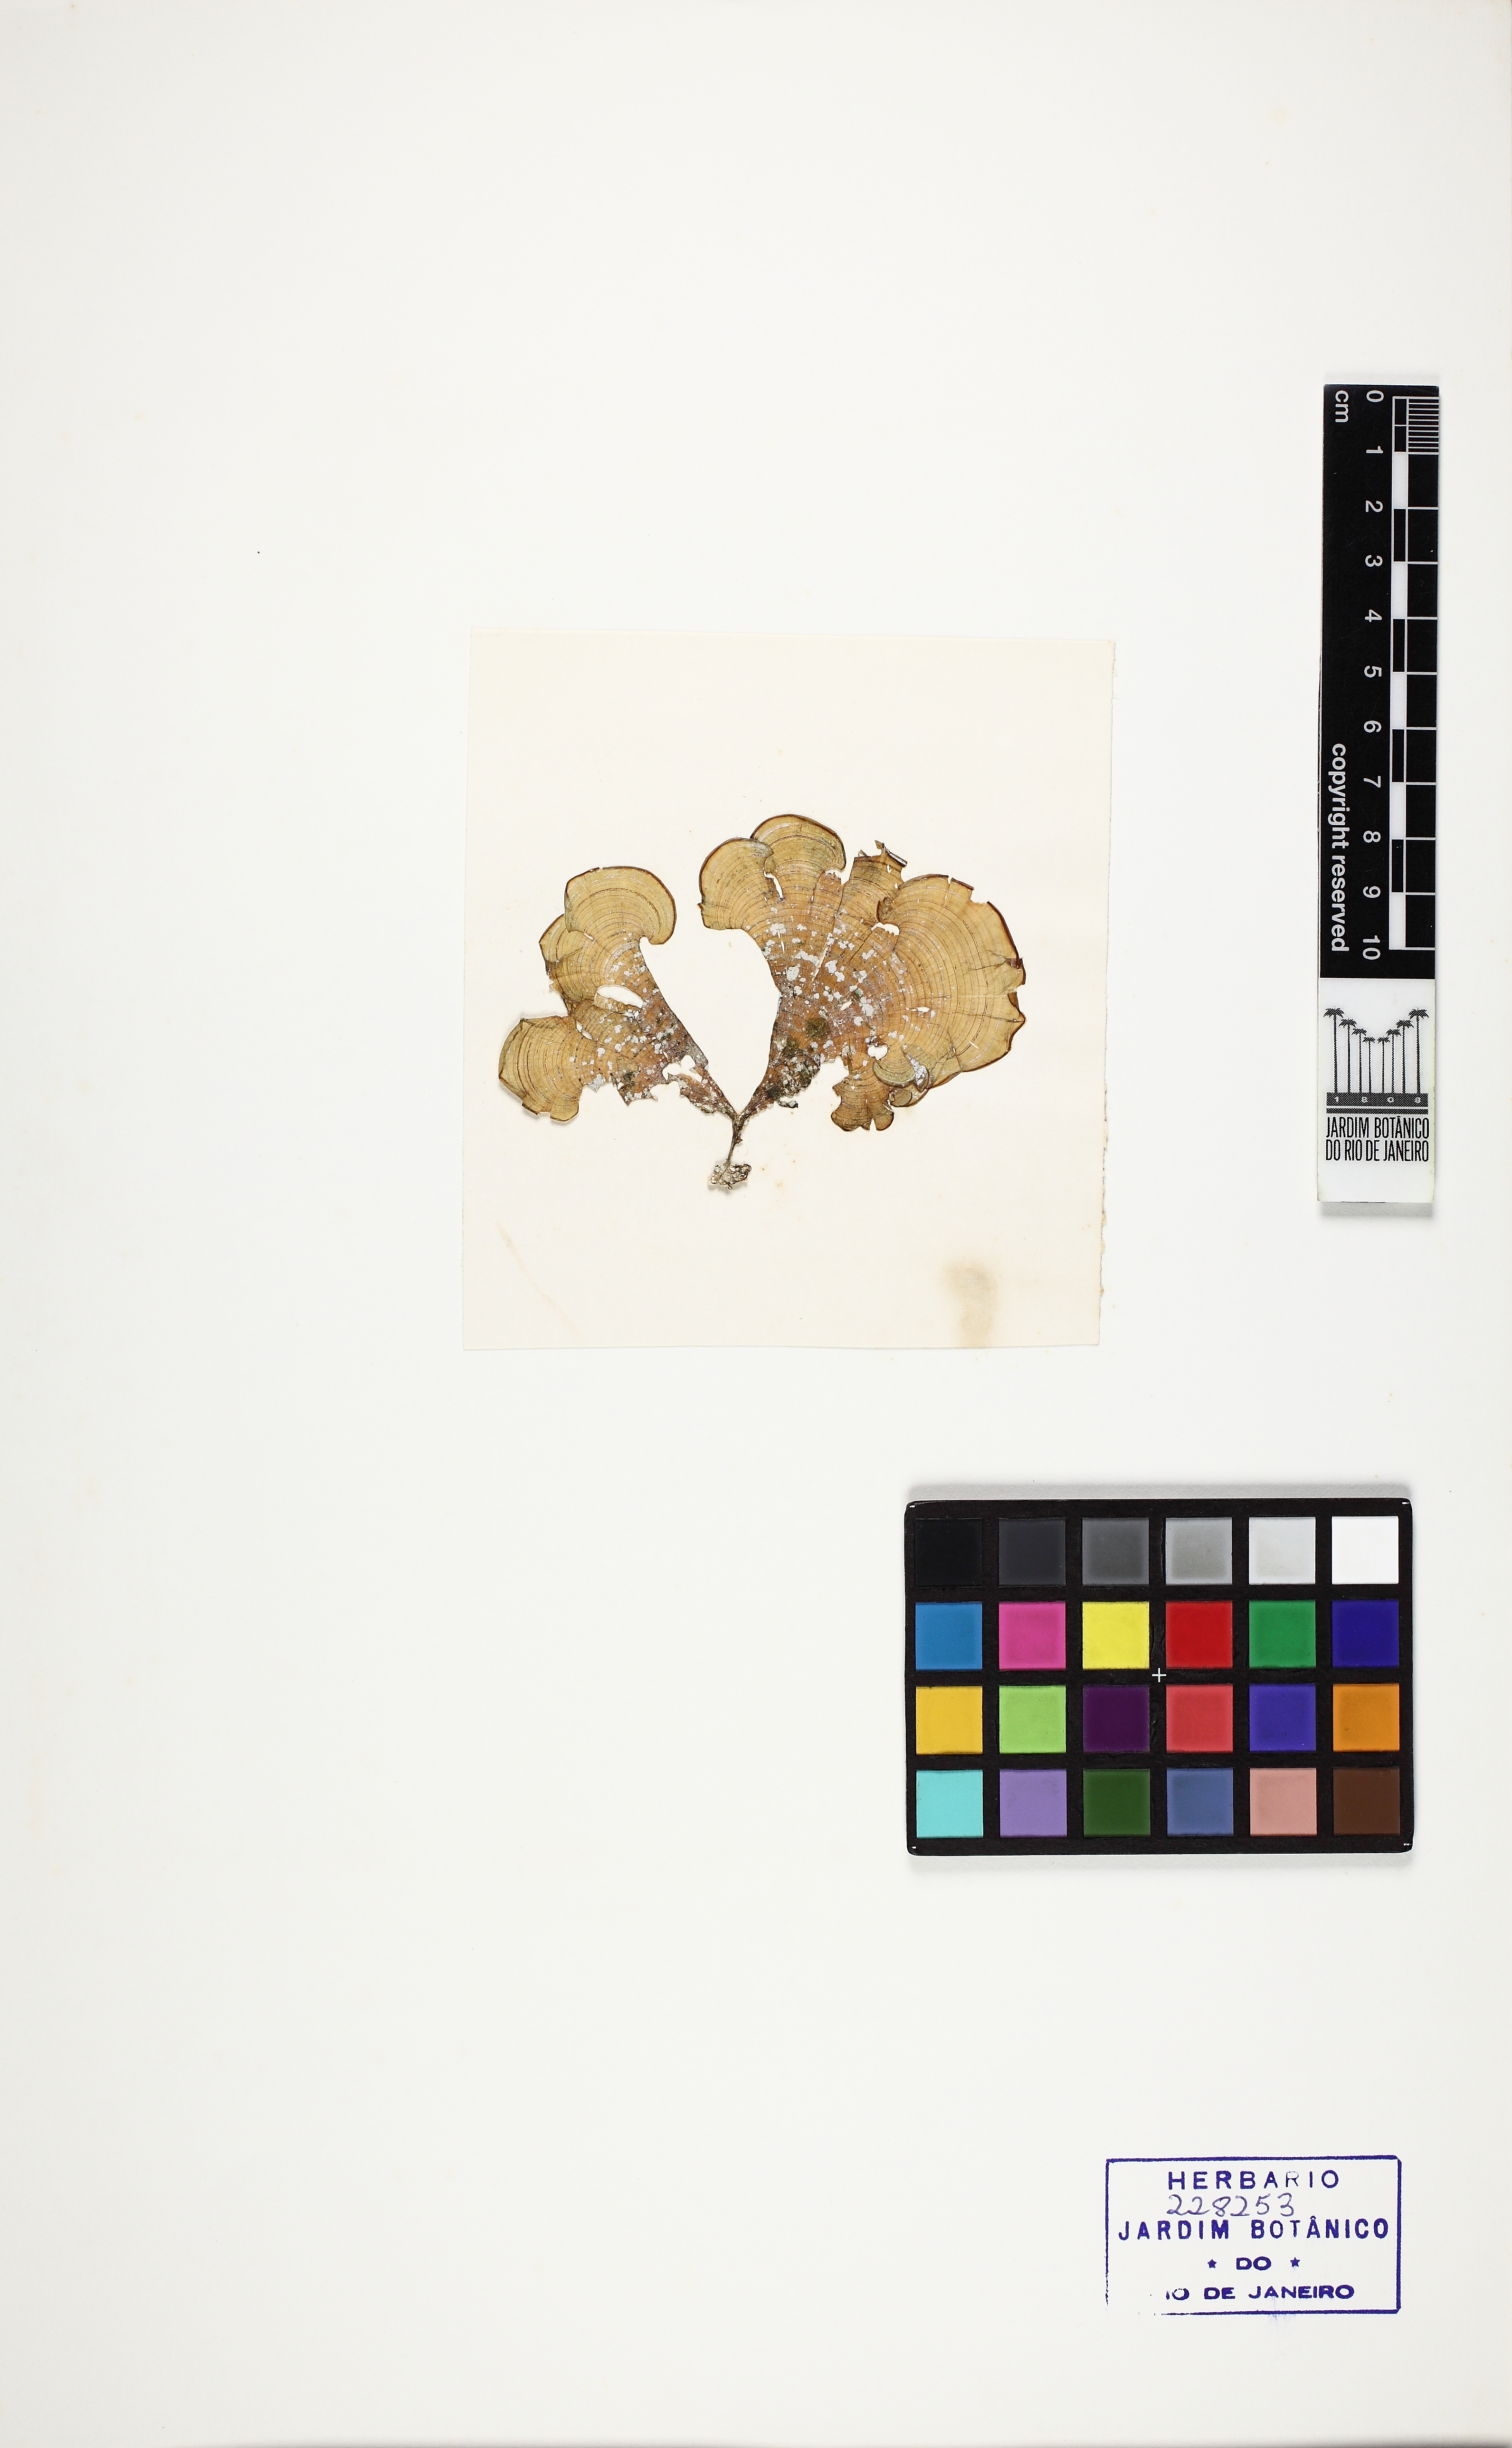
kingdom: Chromista
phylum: Ochrophyta
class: Phaeophyceae
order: Dictyotales
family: Dictyotaceae
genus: Padina
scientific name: Padina sanctae-crucis
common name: White scroll algae
